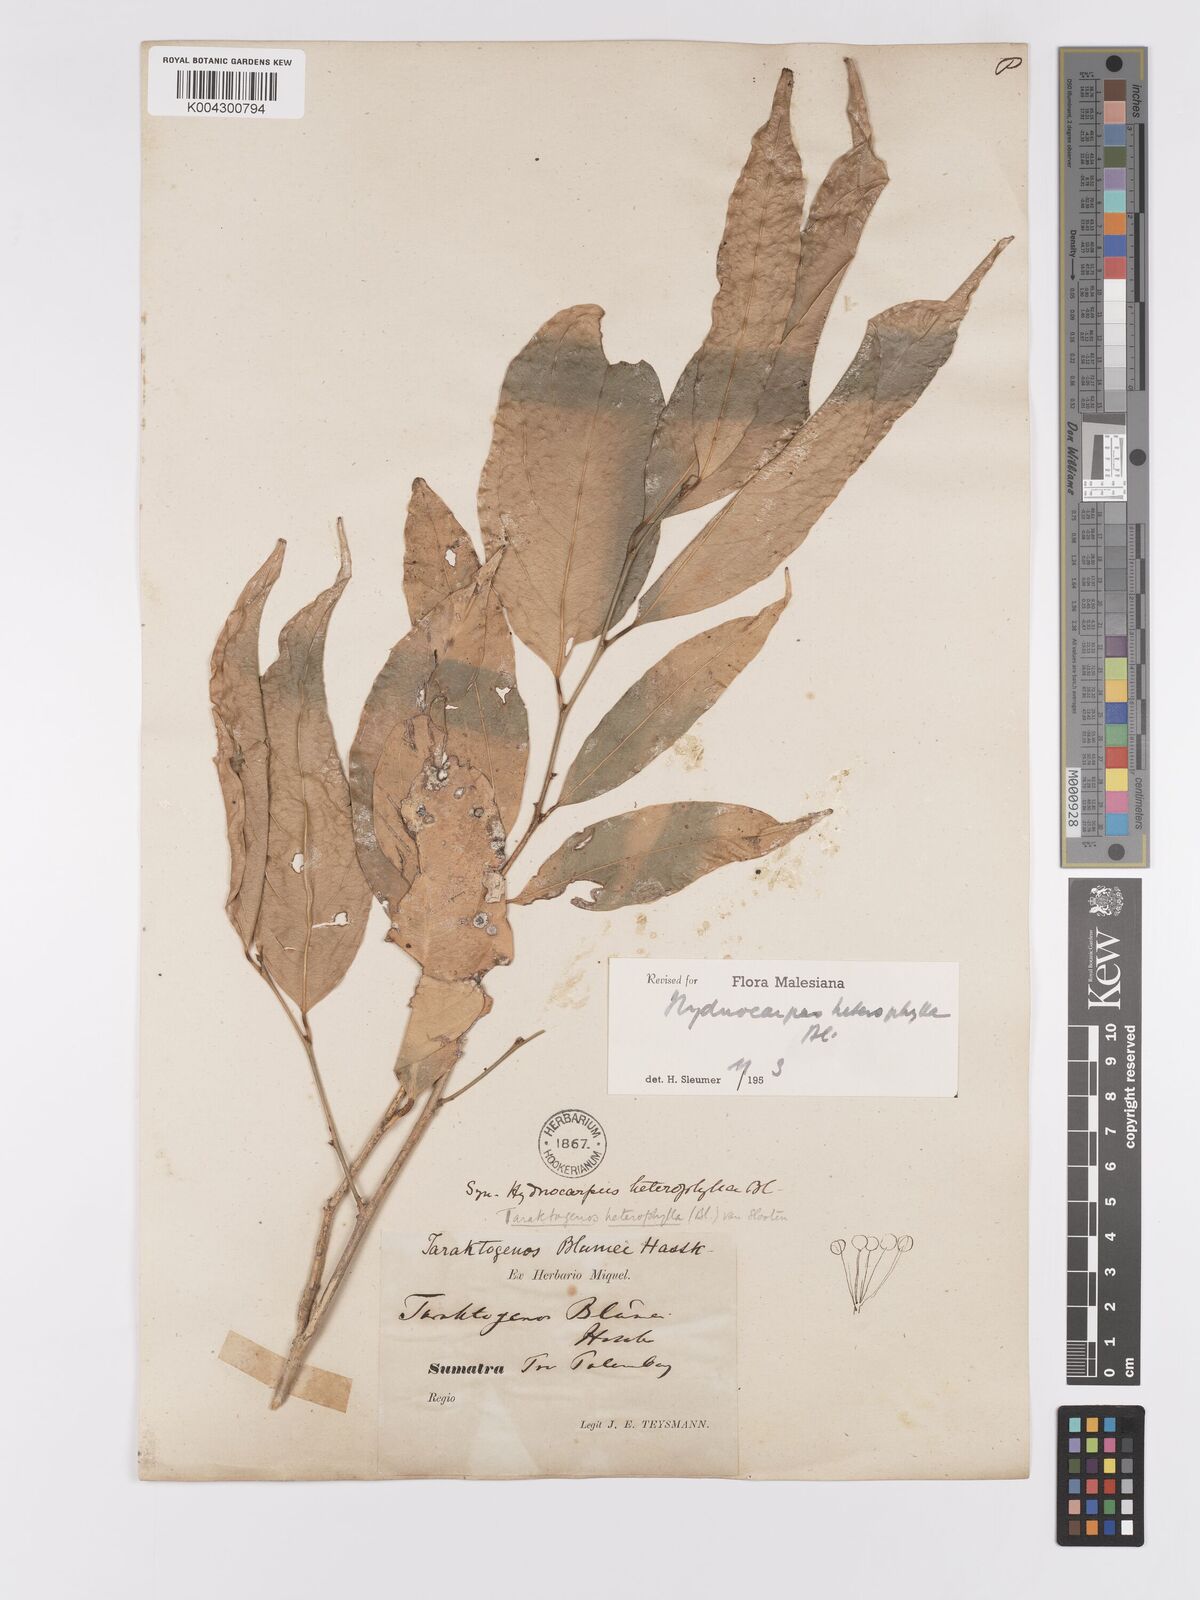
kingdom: Plantae
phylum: Tracheophyta
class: Magnoliopsida
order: Malpighiales
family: Achariaceae
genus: Hydnocarpus
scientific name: Hydnocarpus heterophyllus
